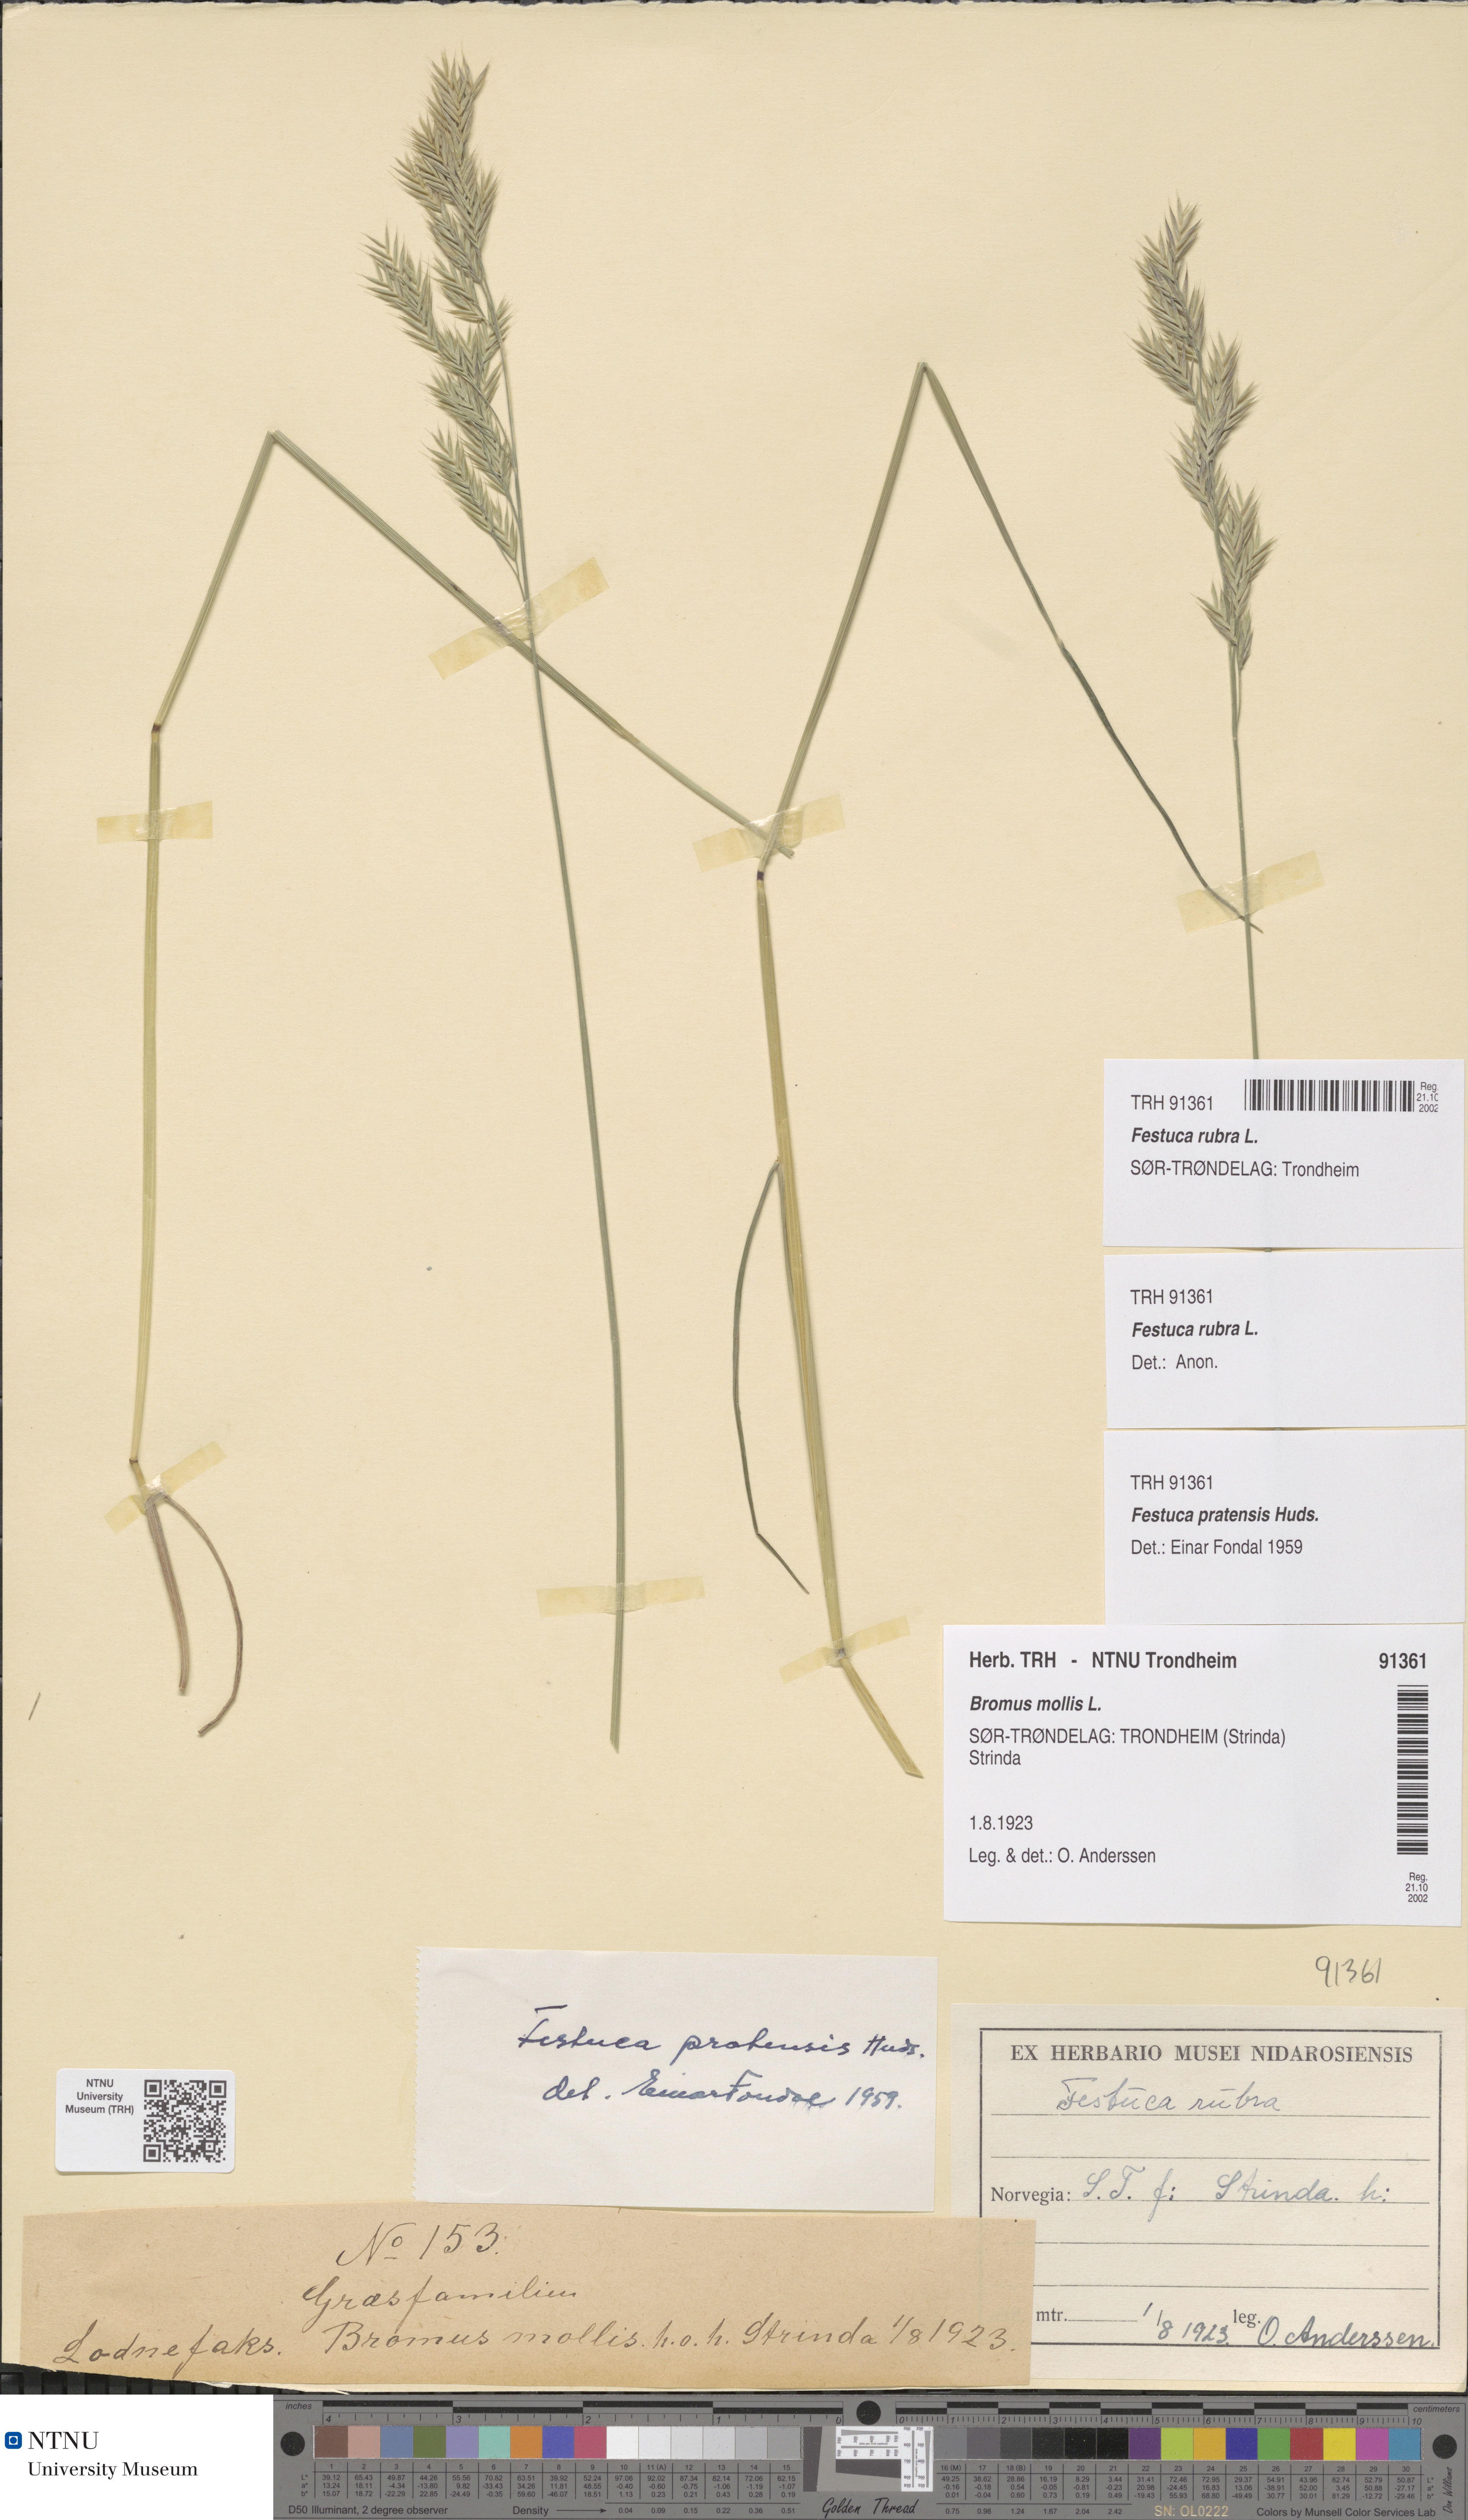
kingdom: Plantae
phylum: Tracheophyta
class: Liliopsida
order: Poales
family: Poaceae
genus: Festuca
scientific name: Festuca rubra
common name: Red fescue
